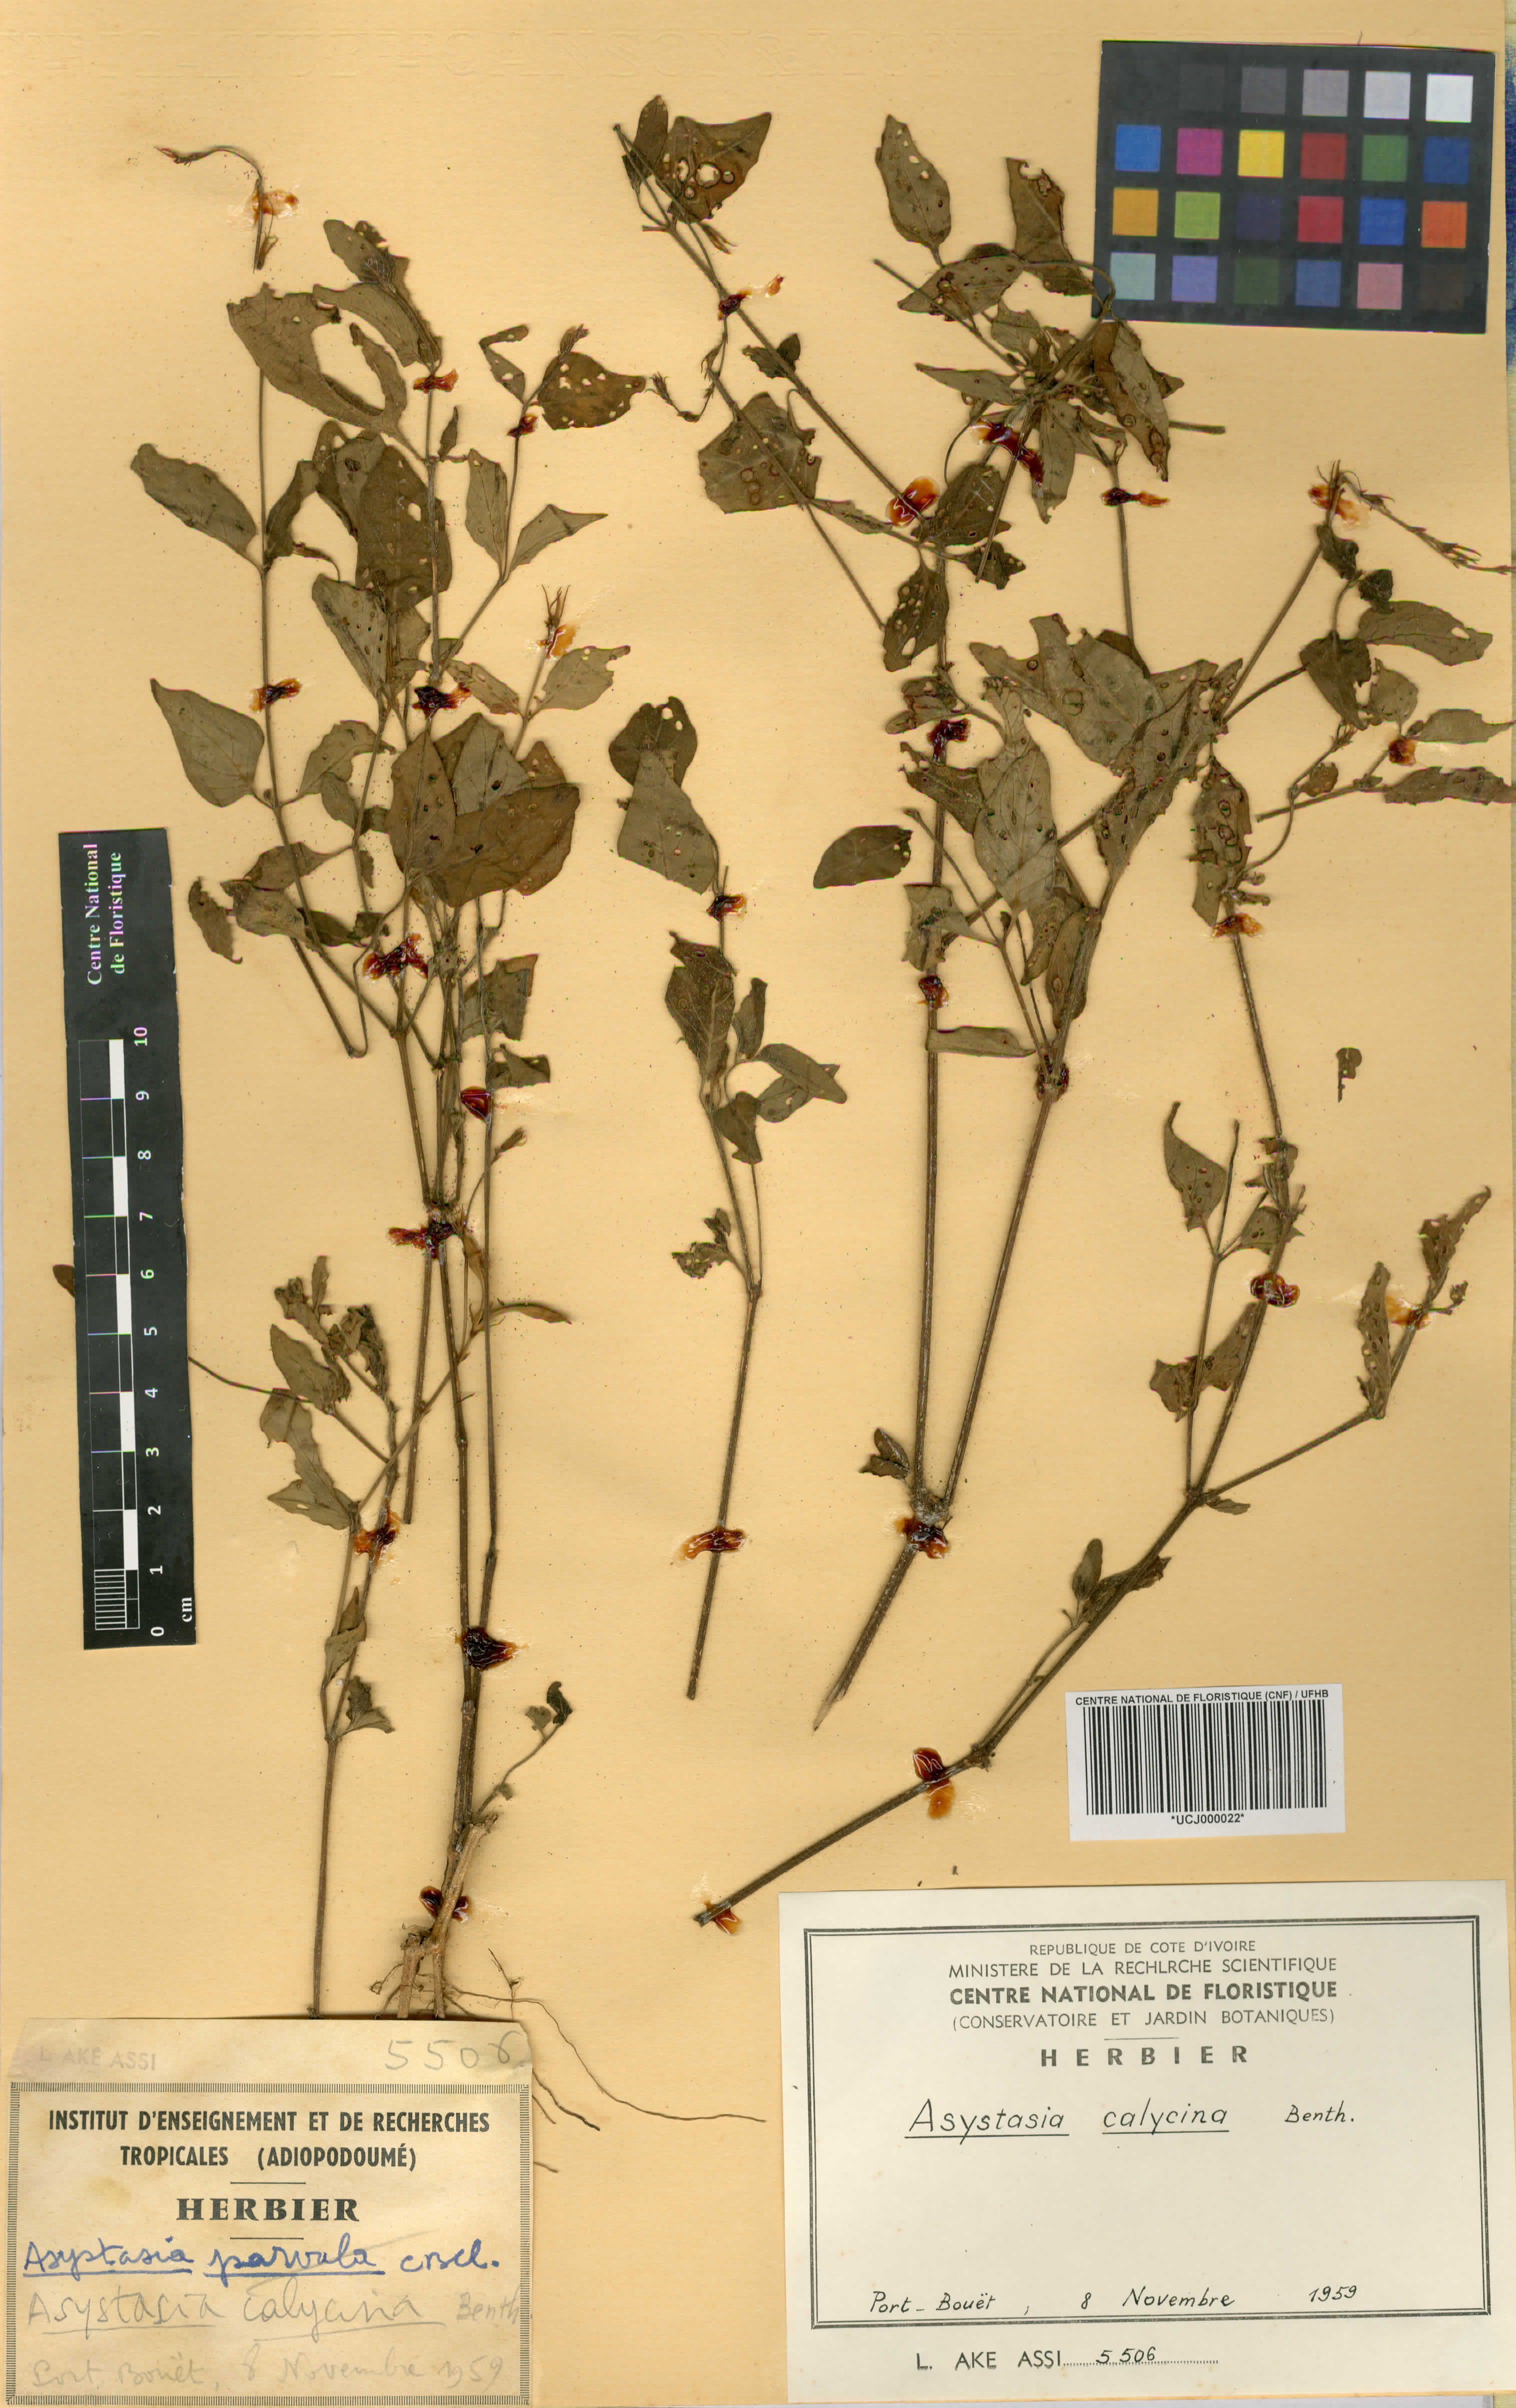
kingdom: Plantae
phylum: Tracheophyta
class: Magnoliopsida
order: Lamiales
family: Acanthaceae
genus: Asystasia
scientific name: Asystasia buettneri
